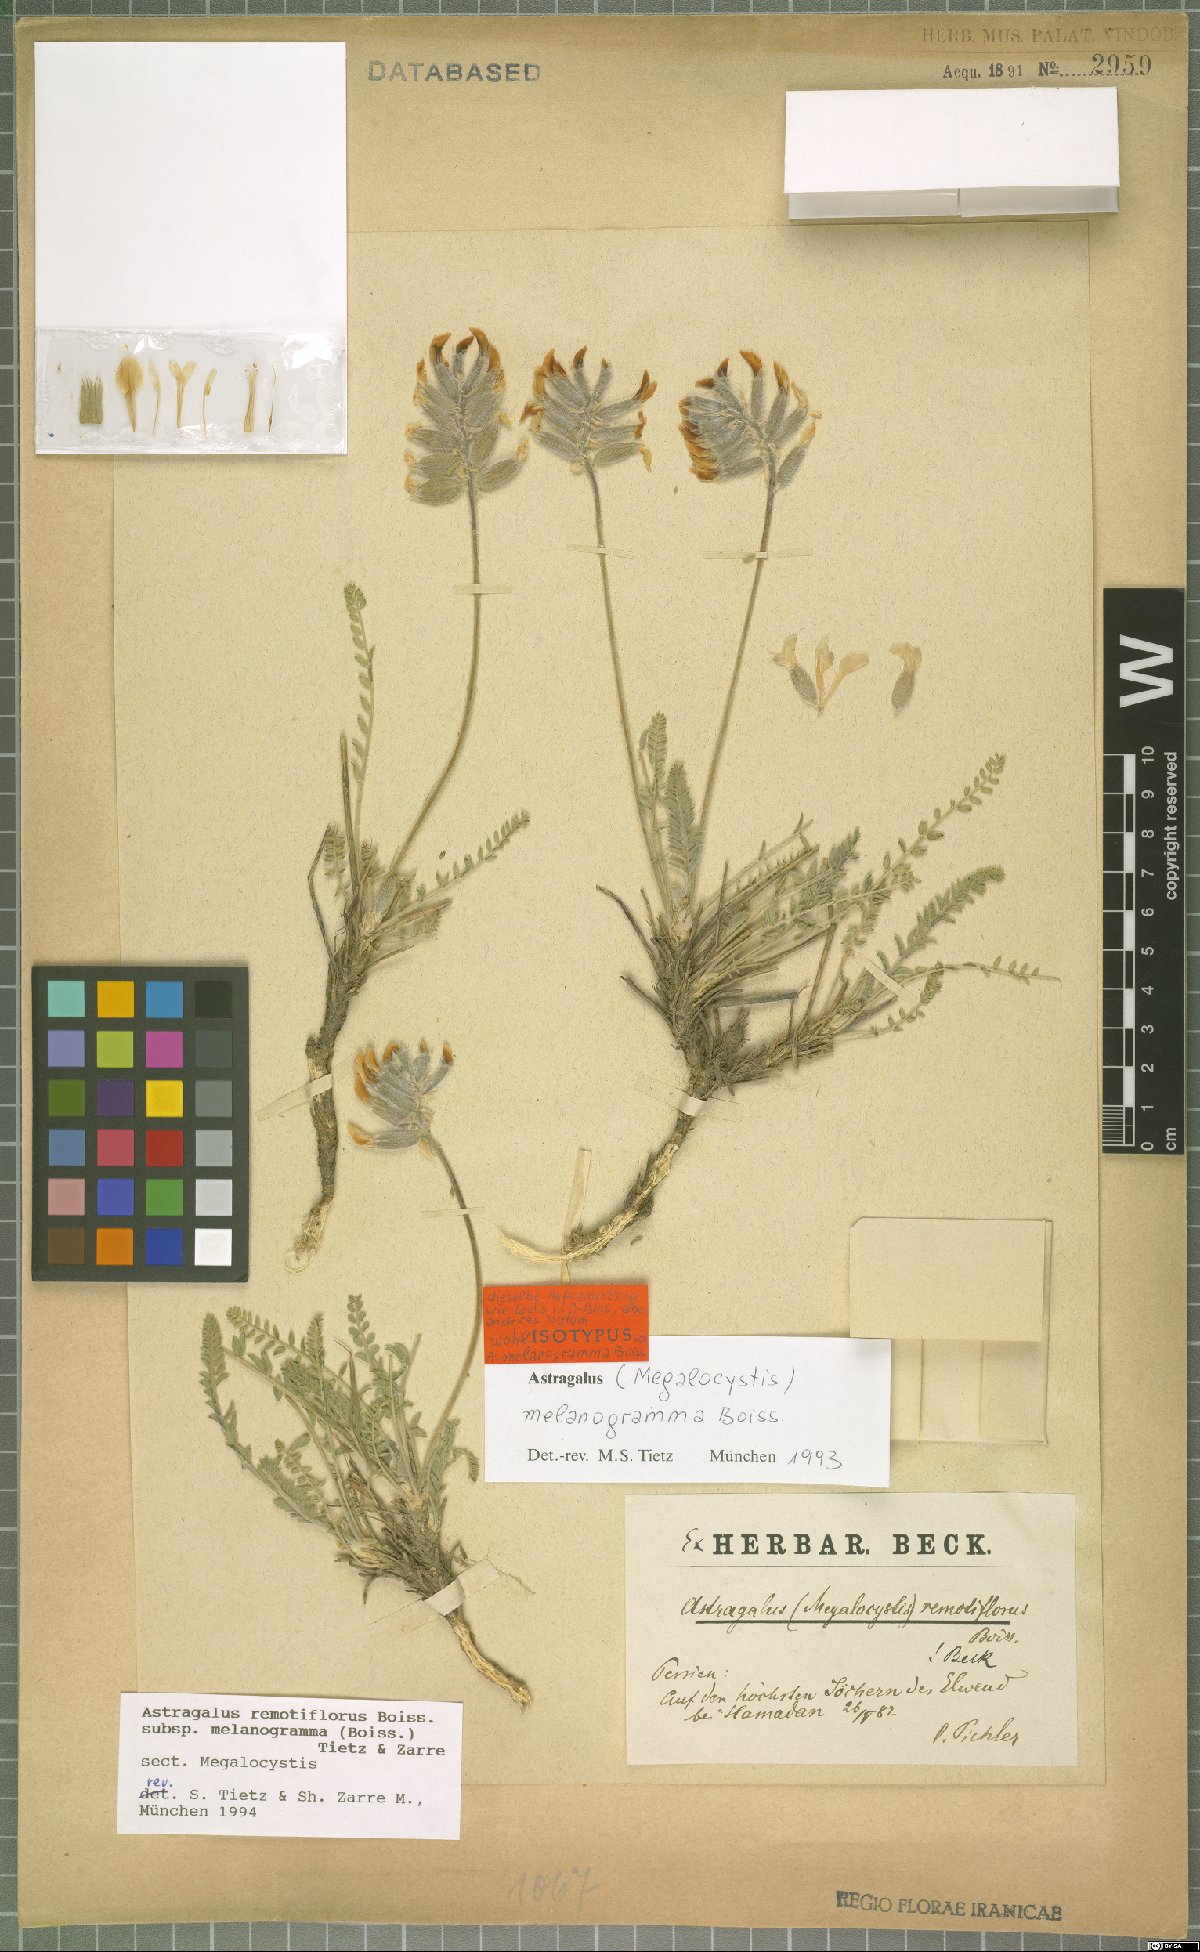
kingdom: Plantae
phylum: Tracheophyta
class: Magnoliopsida
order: Fabales
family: Fabaceae
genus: Astragalus
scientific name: Astragalus remotiflorus
